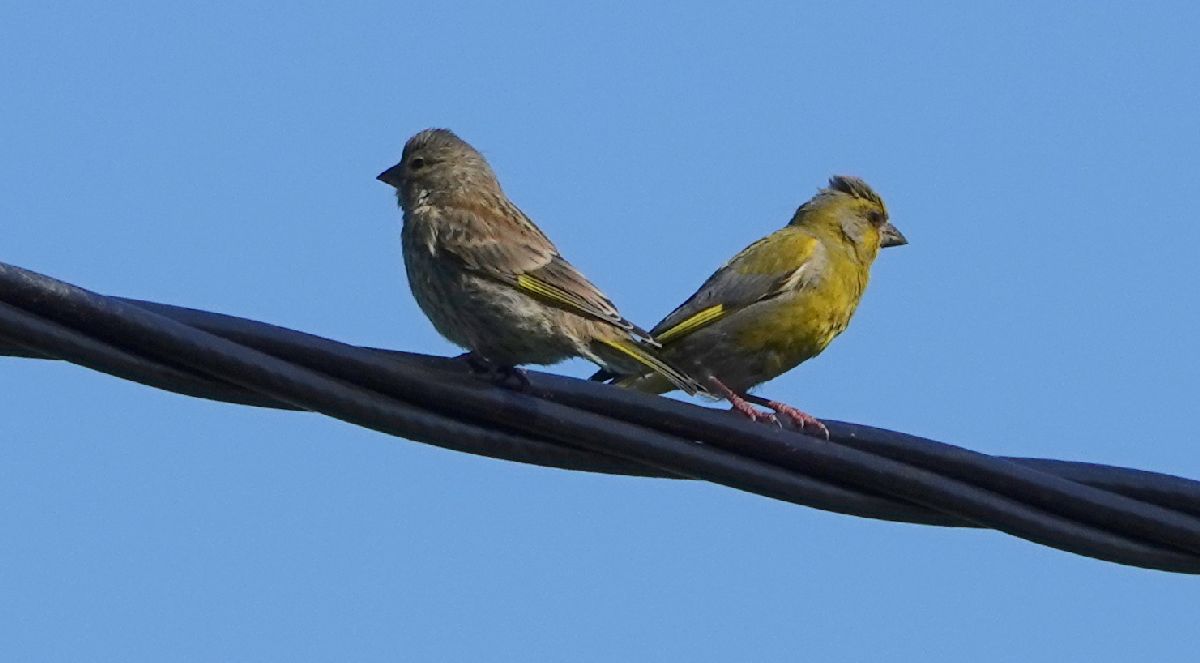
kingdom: Plantae
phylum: Tracheophyta
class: Liliopsida
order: Poales
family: Poaceae
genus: Chloris
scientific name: Chloris chloris
